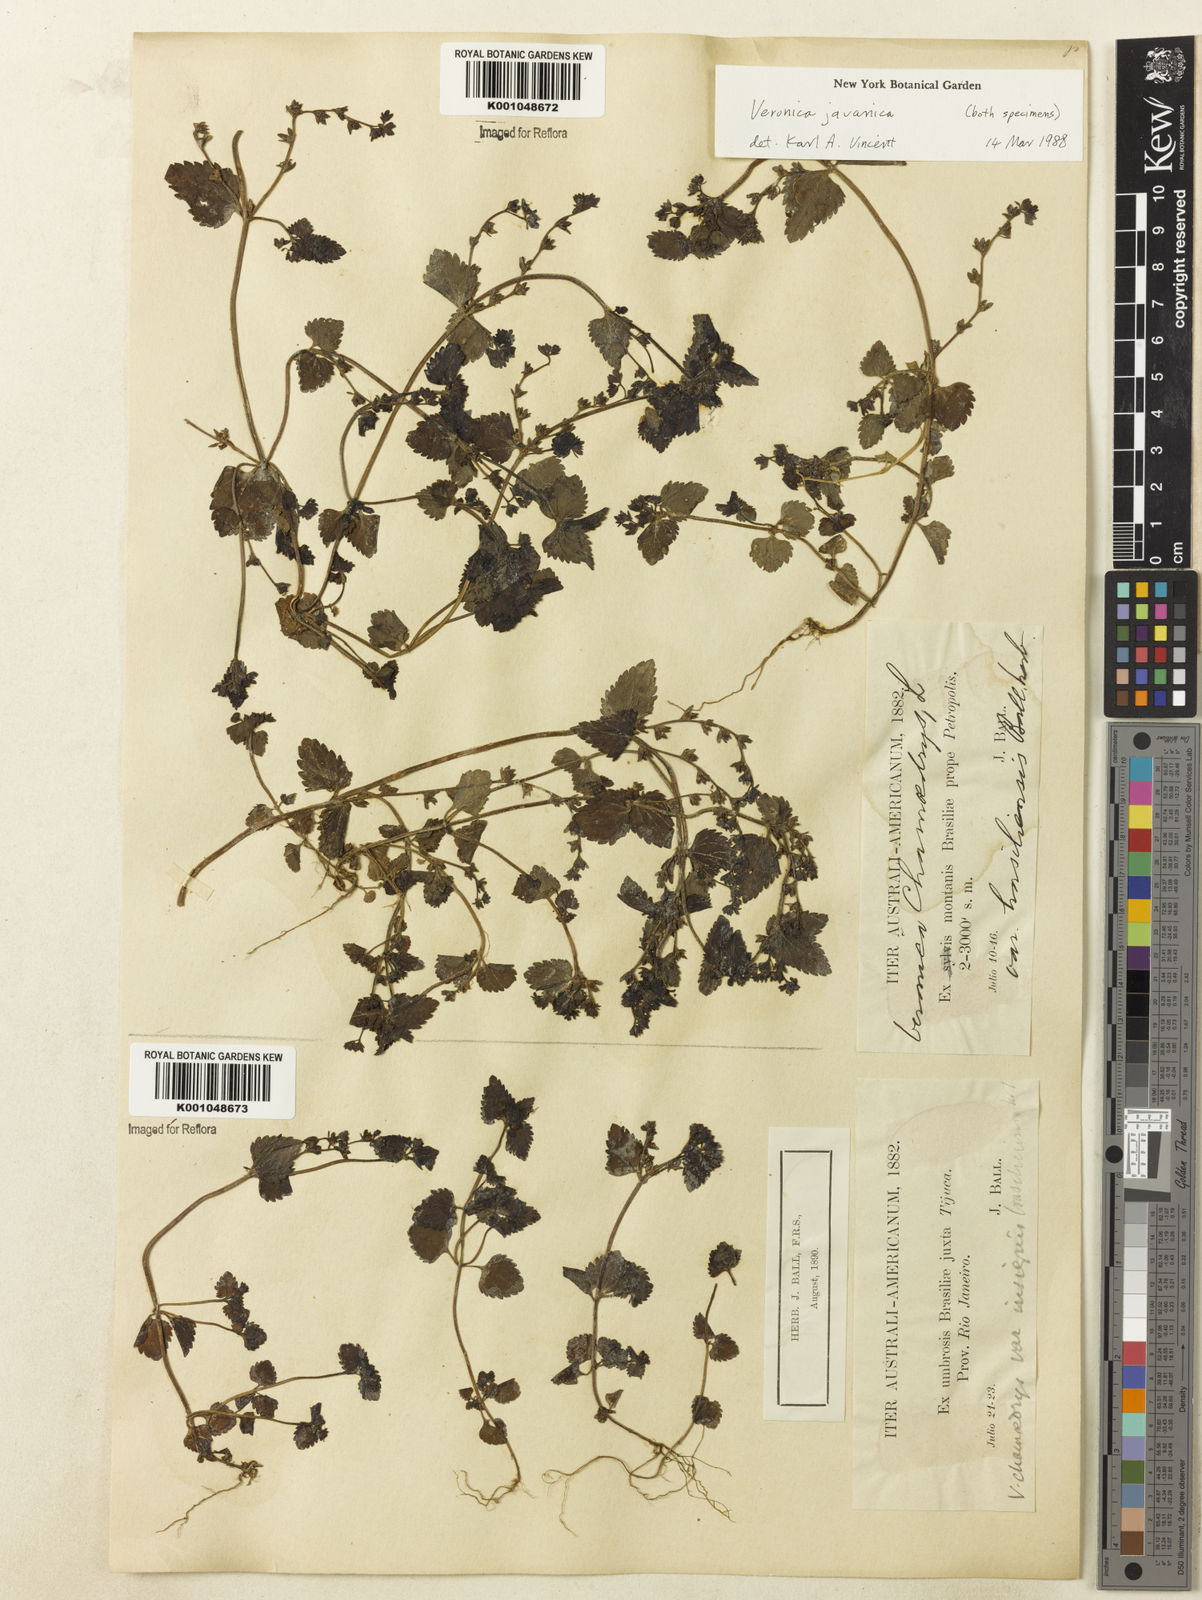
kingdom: Plantae
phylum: Tracheophyta
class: Magnoliopsida
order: Lamiales
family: Plantaginaceae
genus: Veronica
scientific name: Veronica javanica
